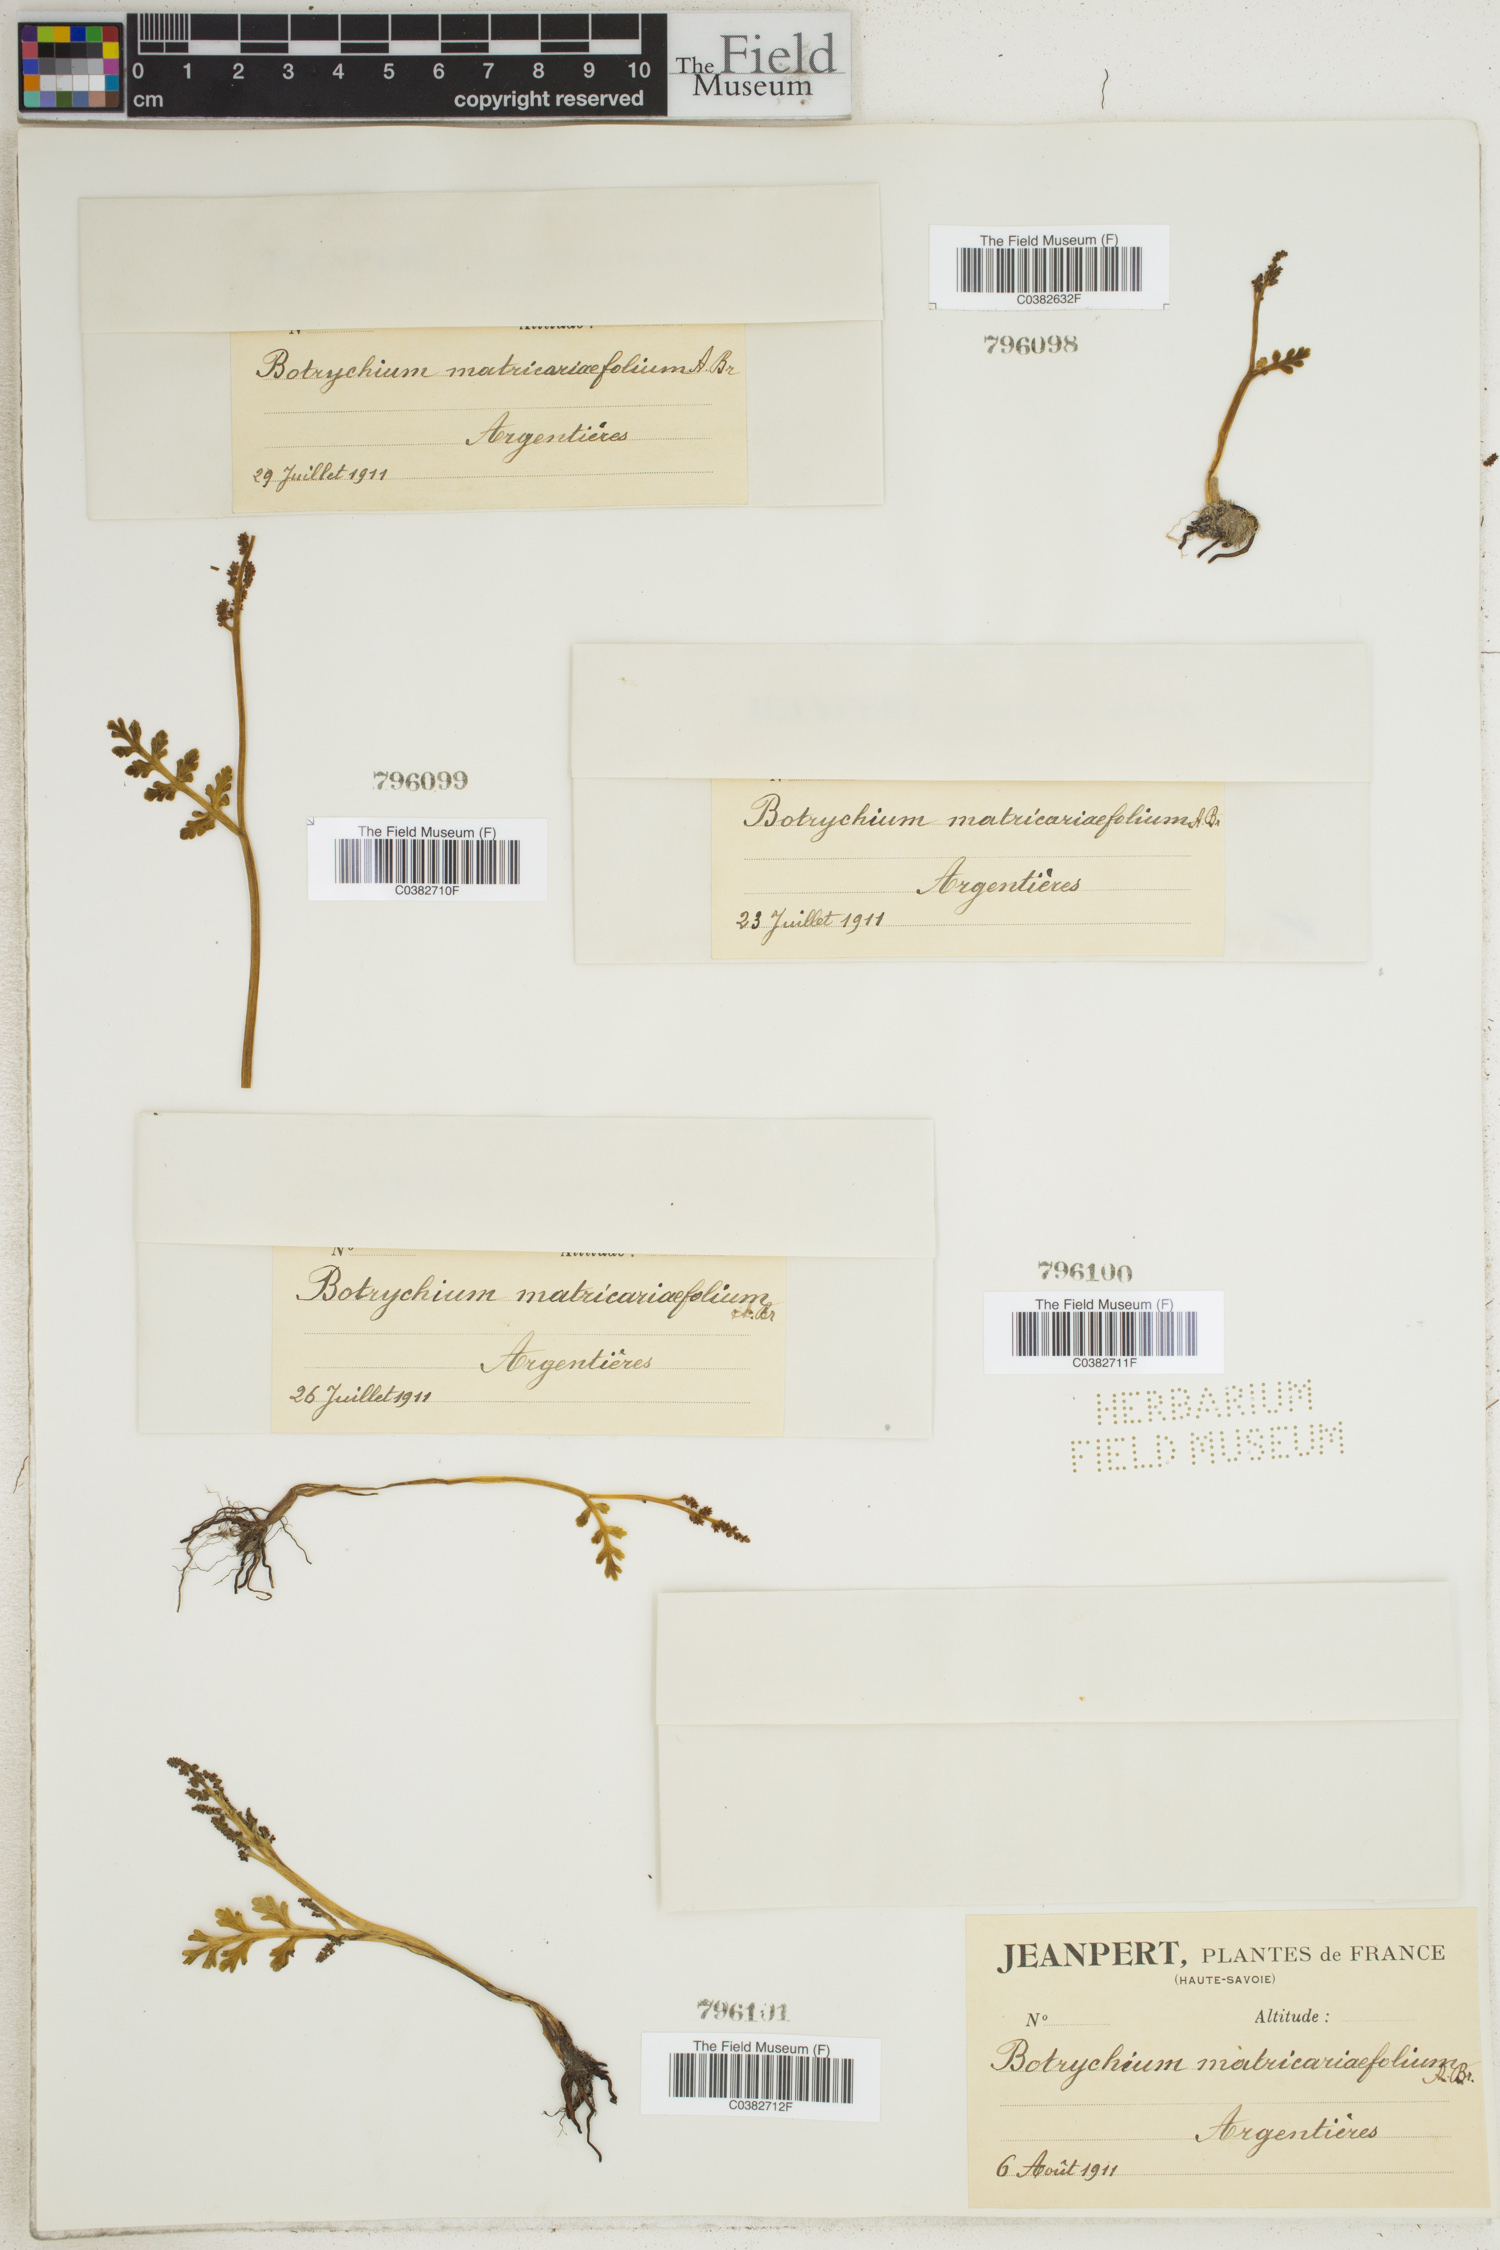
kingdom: Plantae
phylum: Tracheophyta
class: Polypodiopsida
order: Ophioglossales
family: Ophioglossaceae
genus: Botrychium
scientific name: Botrychium matricariifolium
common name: Branched moonwort
